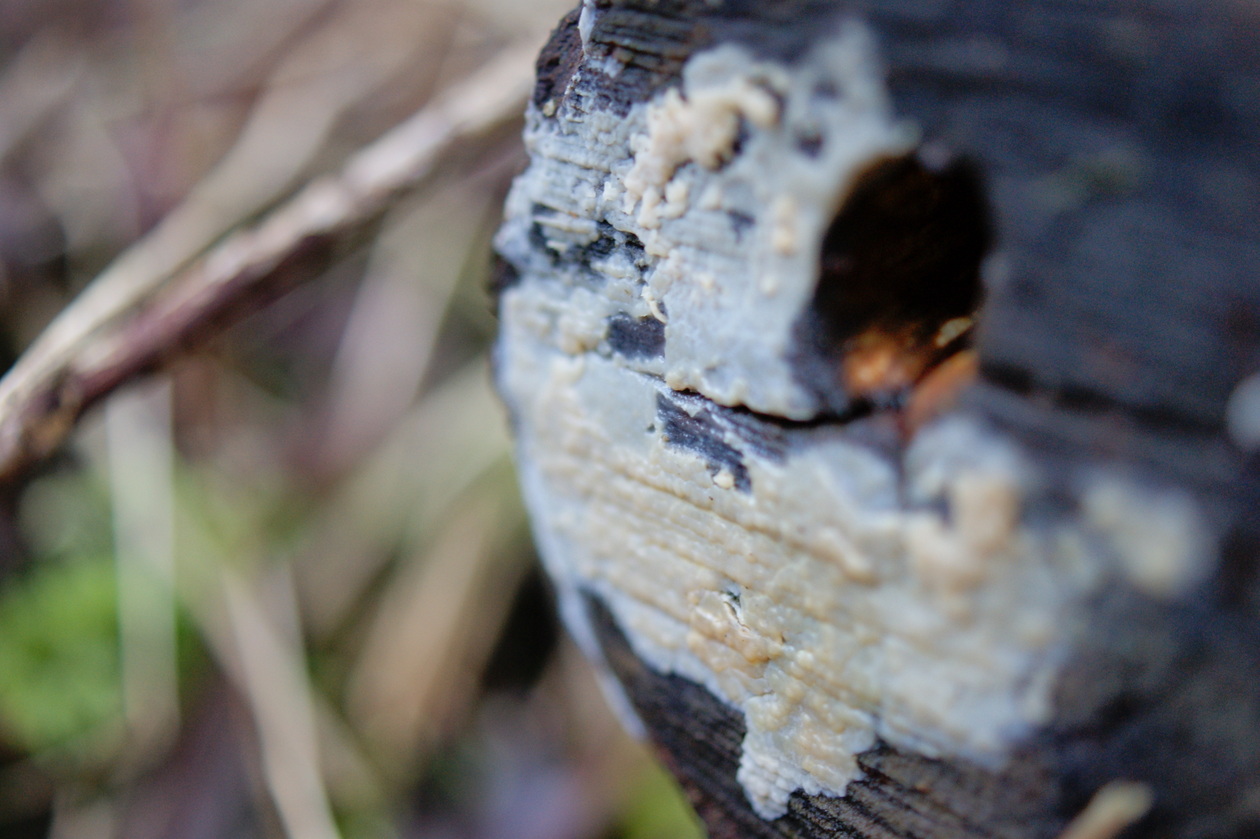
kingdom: Fungi
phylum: Basidiomycota
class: Agaricomycetes
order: Agaricales
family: Radulomycetaceae
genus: Radulomyces
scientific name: Radulomyces confluens
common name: glat naftalinskind
